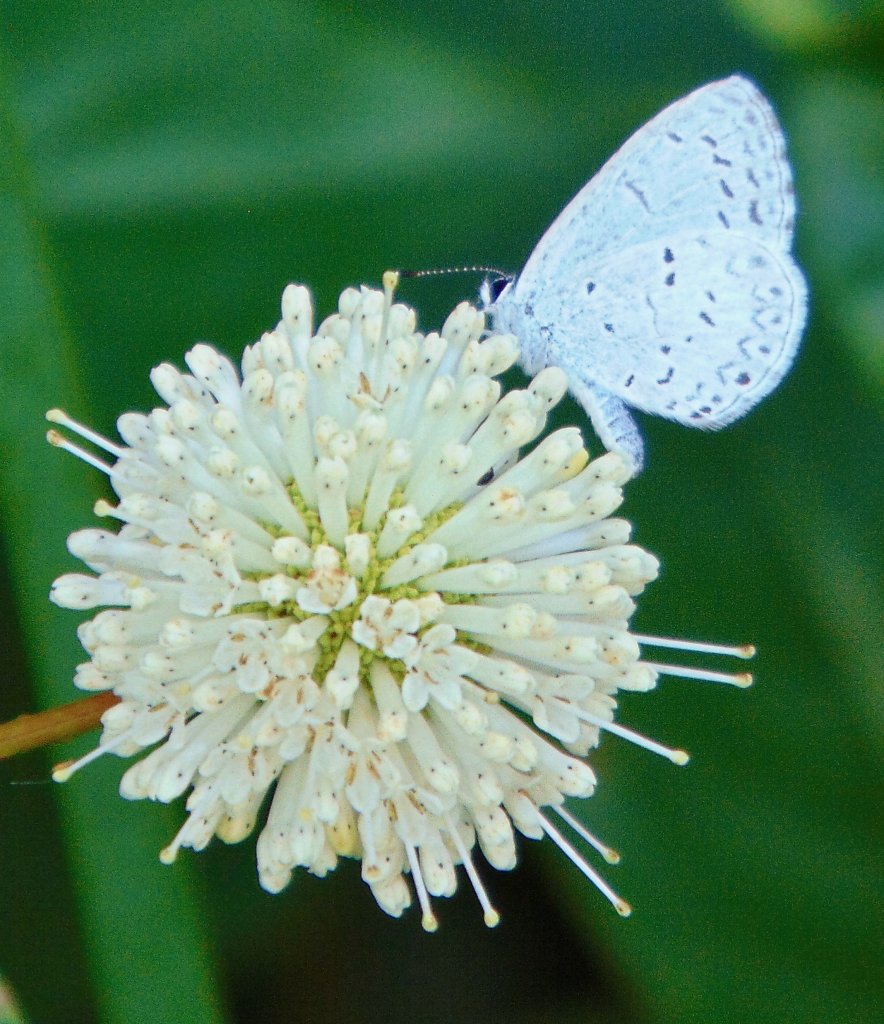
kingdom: Animalia
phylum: Arthropoda
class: Insecta
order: Lepidoptera
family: Lycaenidae
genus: Cyaniris
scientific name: Cyaniris neglecta
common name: Summer Azure
